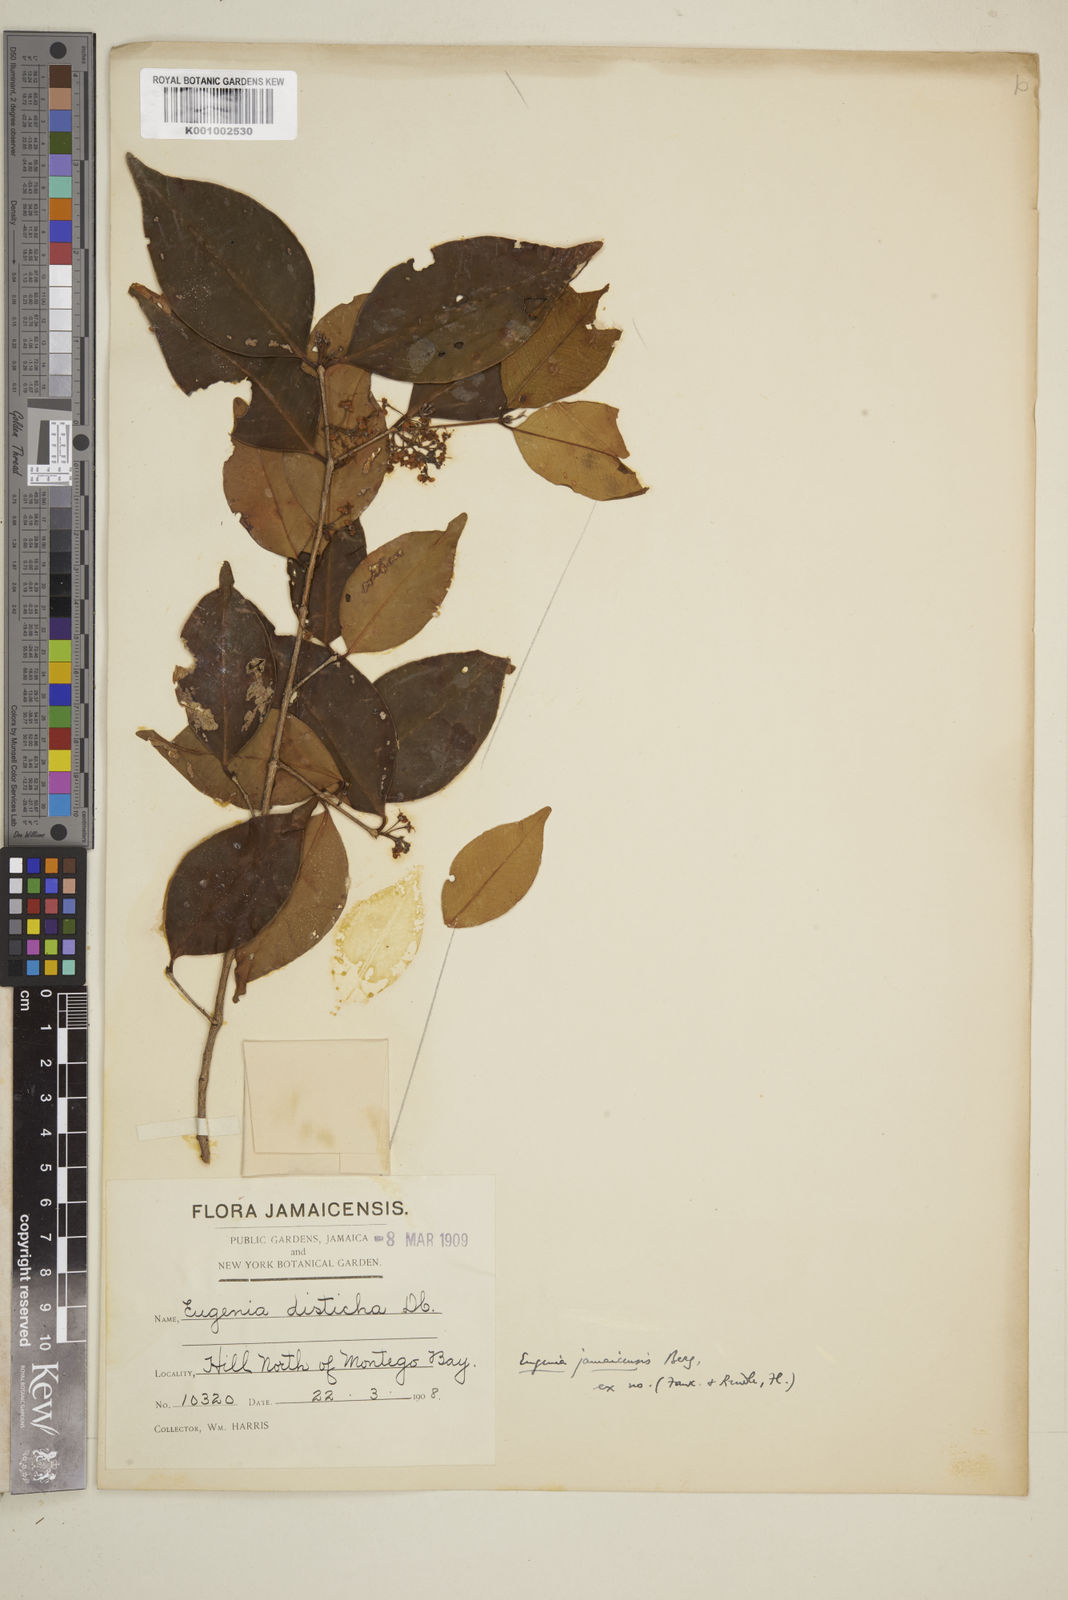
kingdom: Plantae
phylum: Tracheophyta
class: Magnoliopsida
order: Myrtales
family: Myrtaceae
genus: Eugenia
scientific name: Eugenia jamaicensis
